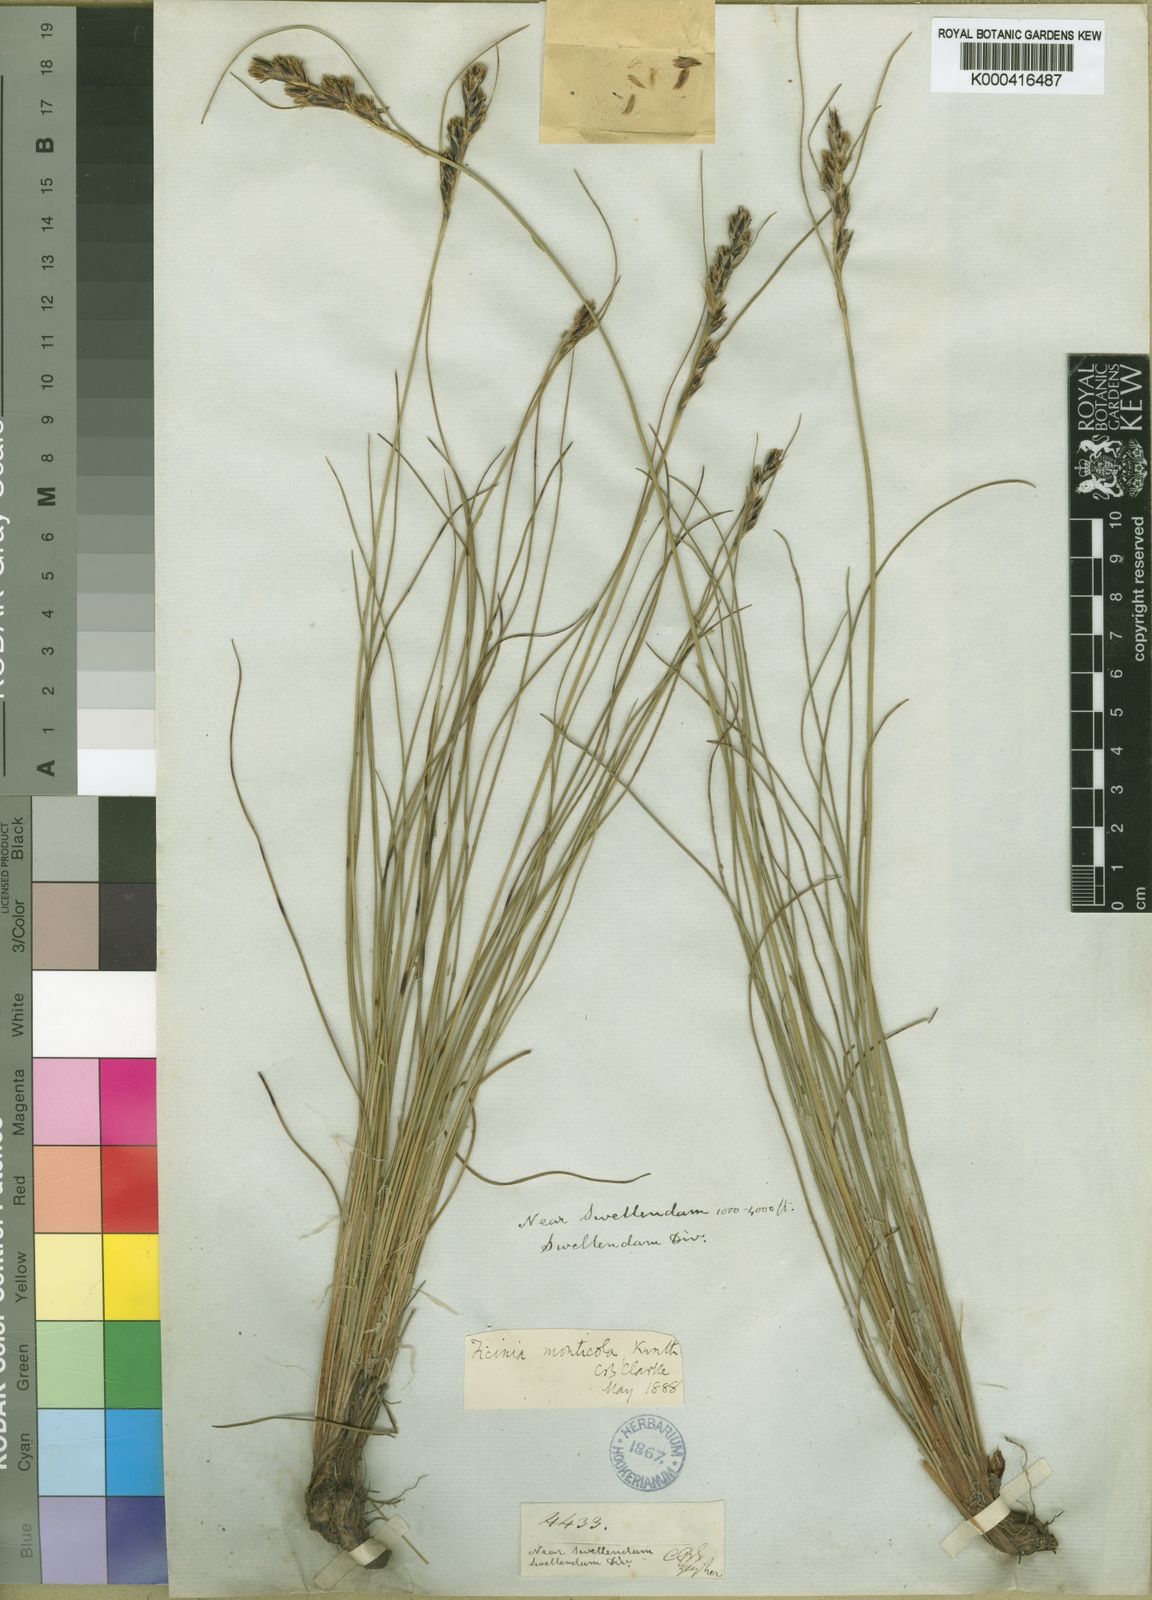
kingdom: Plantae
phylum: Tracheophyta
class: Liliopsida
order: Poales
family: Cyperaceae
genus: Ficinia
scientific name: Ficinia monticola
